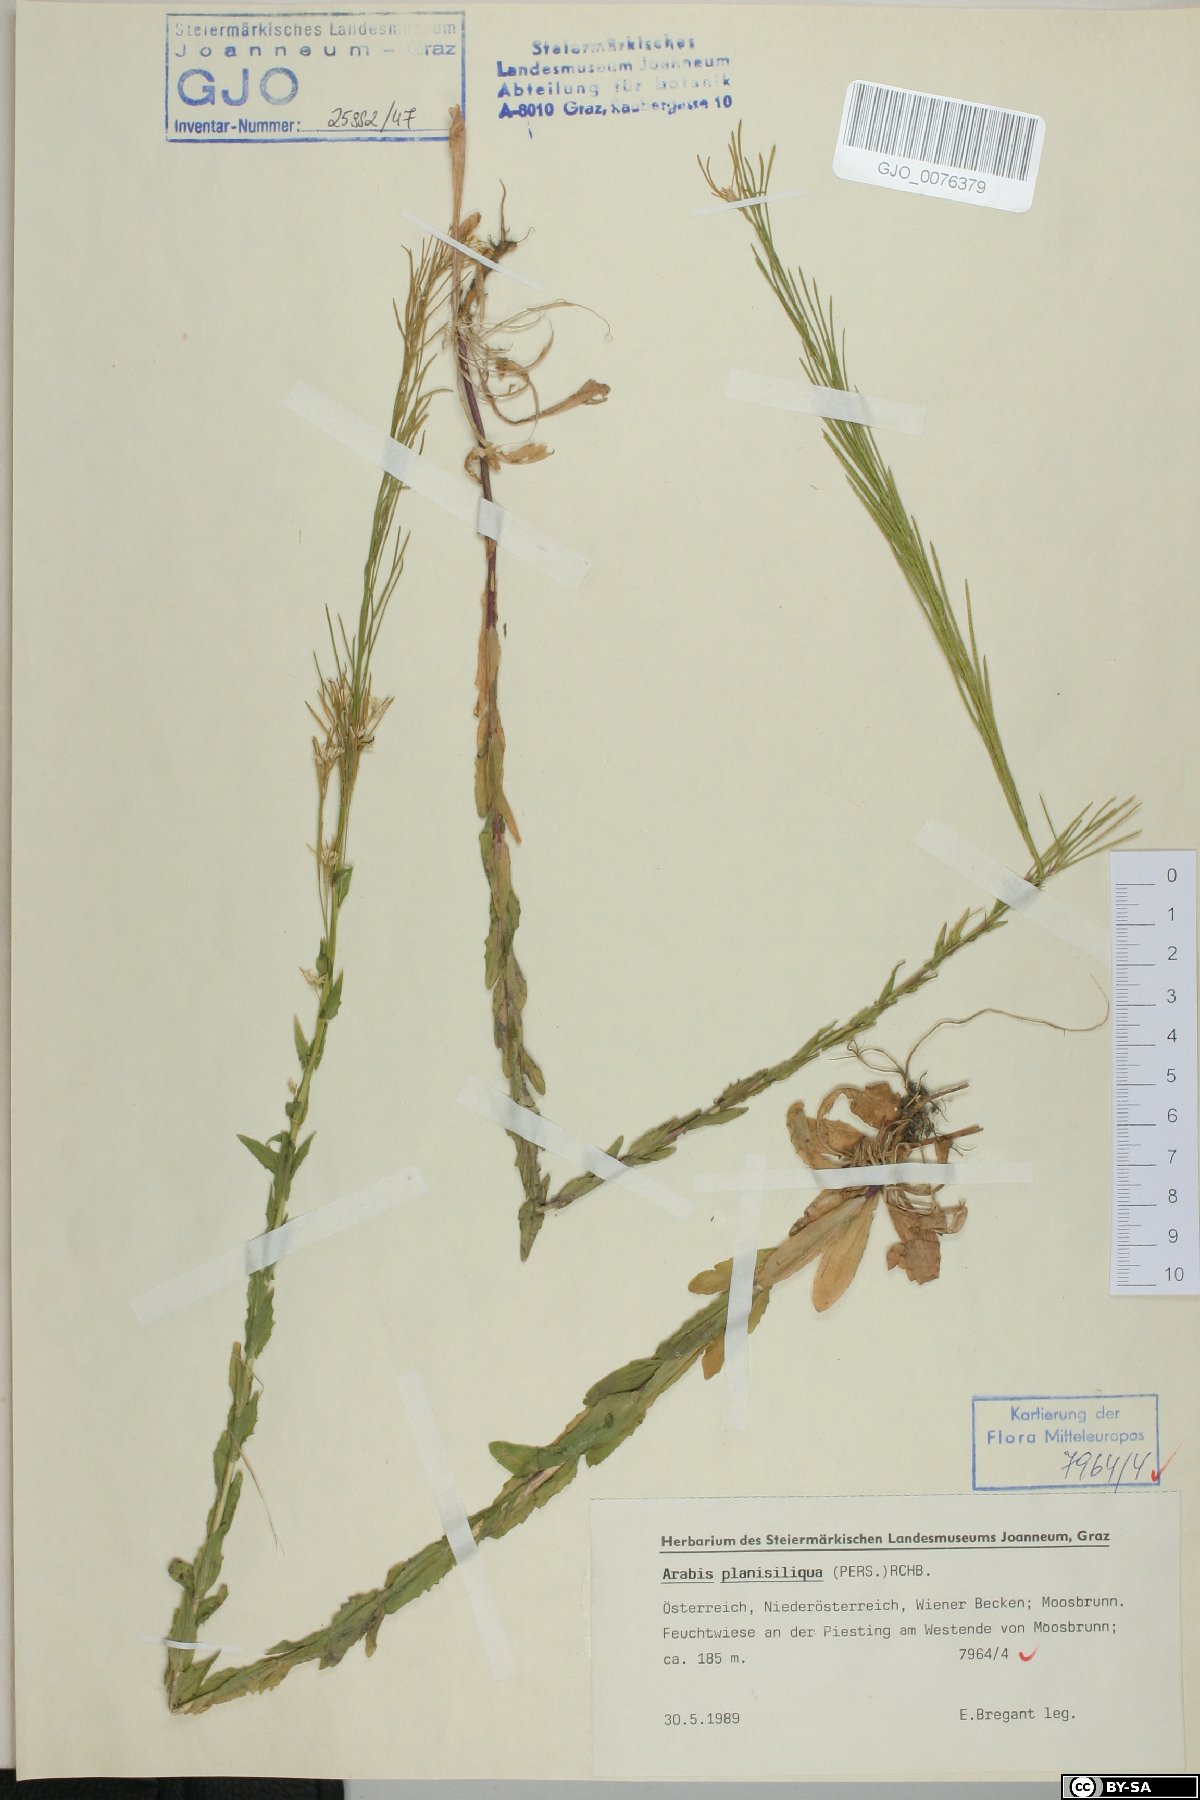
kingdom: Plantae
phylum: Tracheophyta
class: Magnoliopsida
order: Brassicales
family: Brassicaceae
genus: Arabis
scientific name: Arabis planisiliqua
